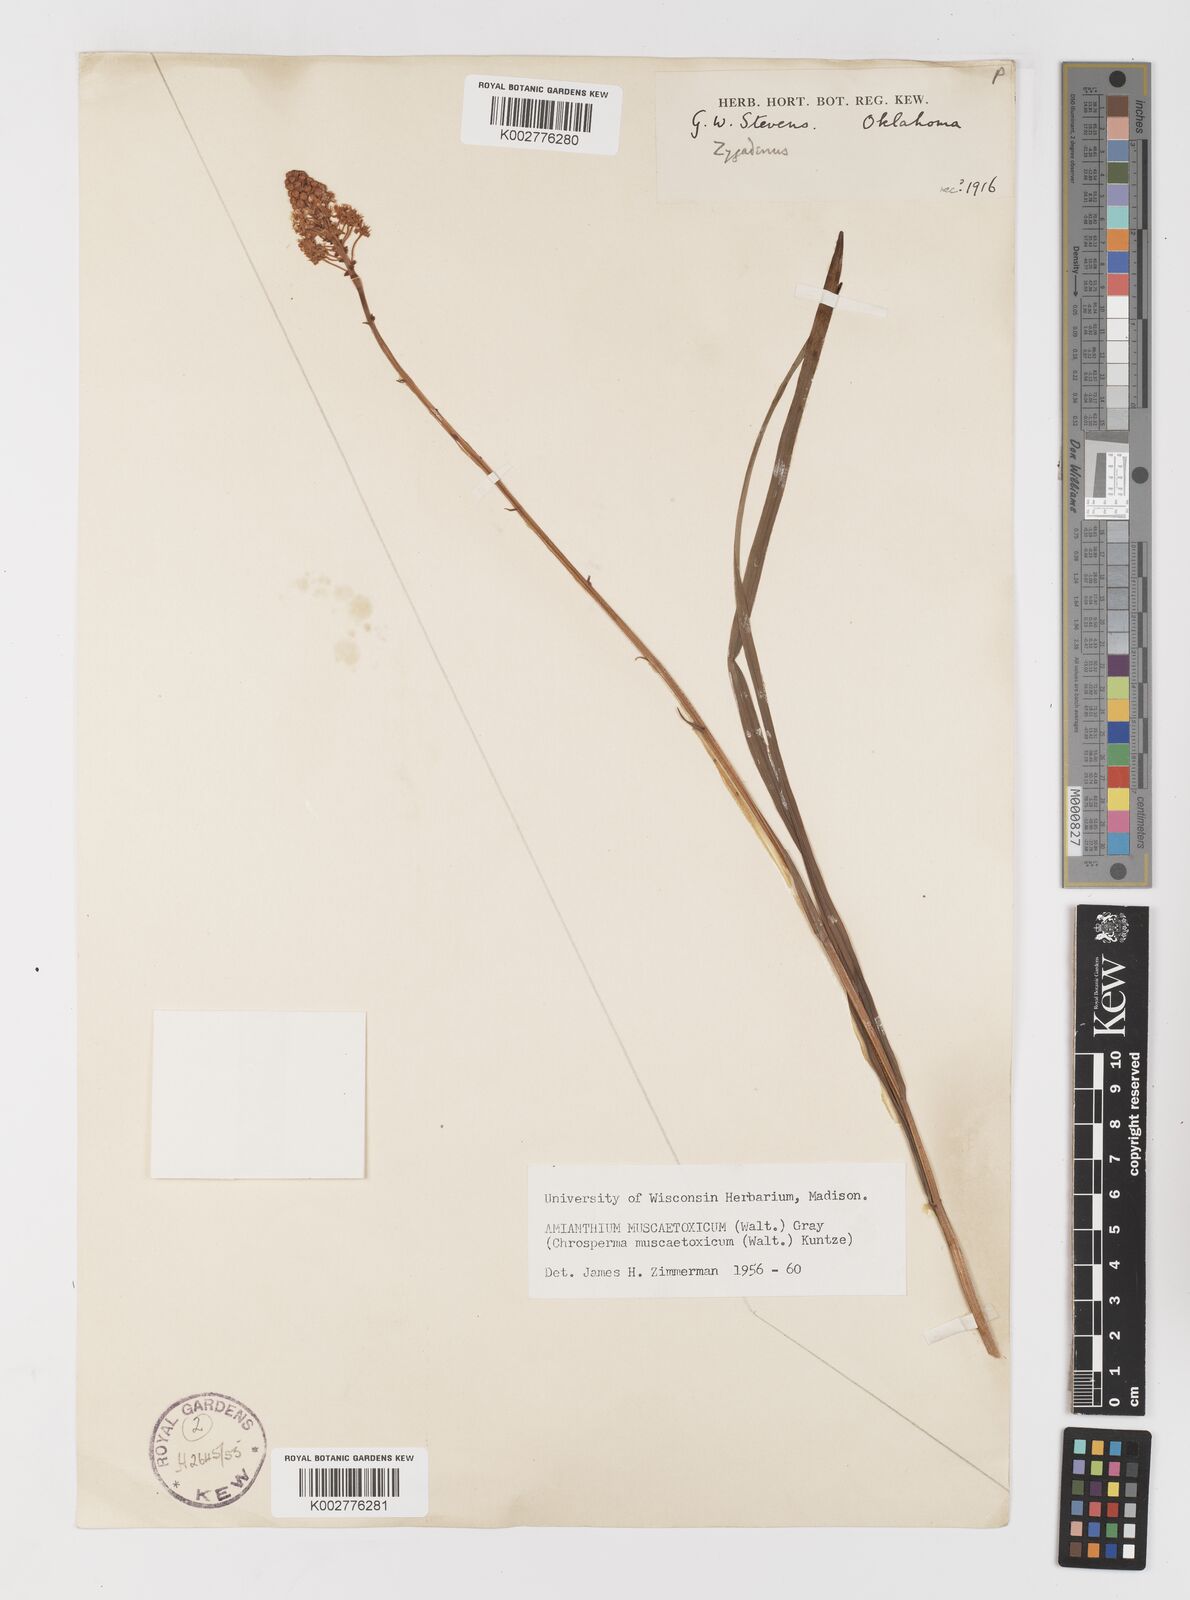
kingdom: Plantae
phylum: Tracheophyta
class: Liliopsida
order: Liliales
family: Melanthiaceae
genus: Amianthium
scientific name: Amianthium muscitoxicum
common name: Fly-poison
